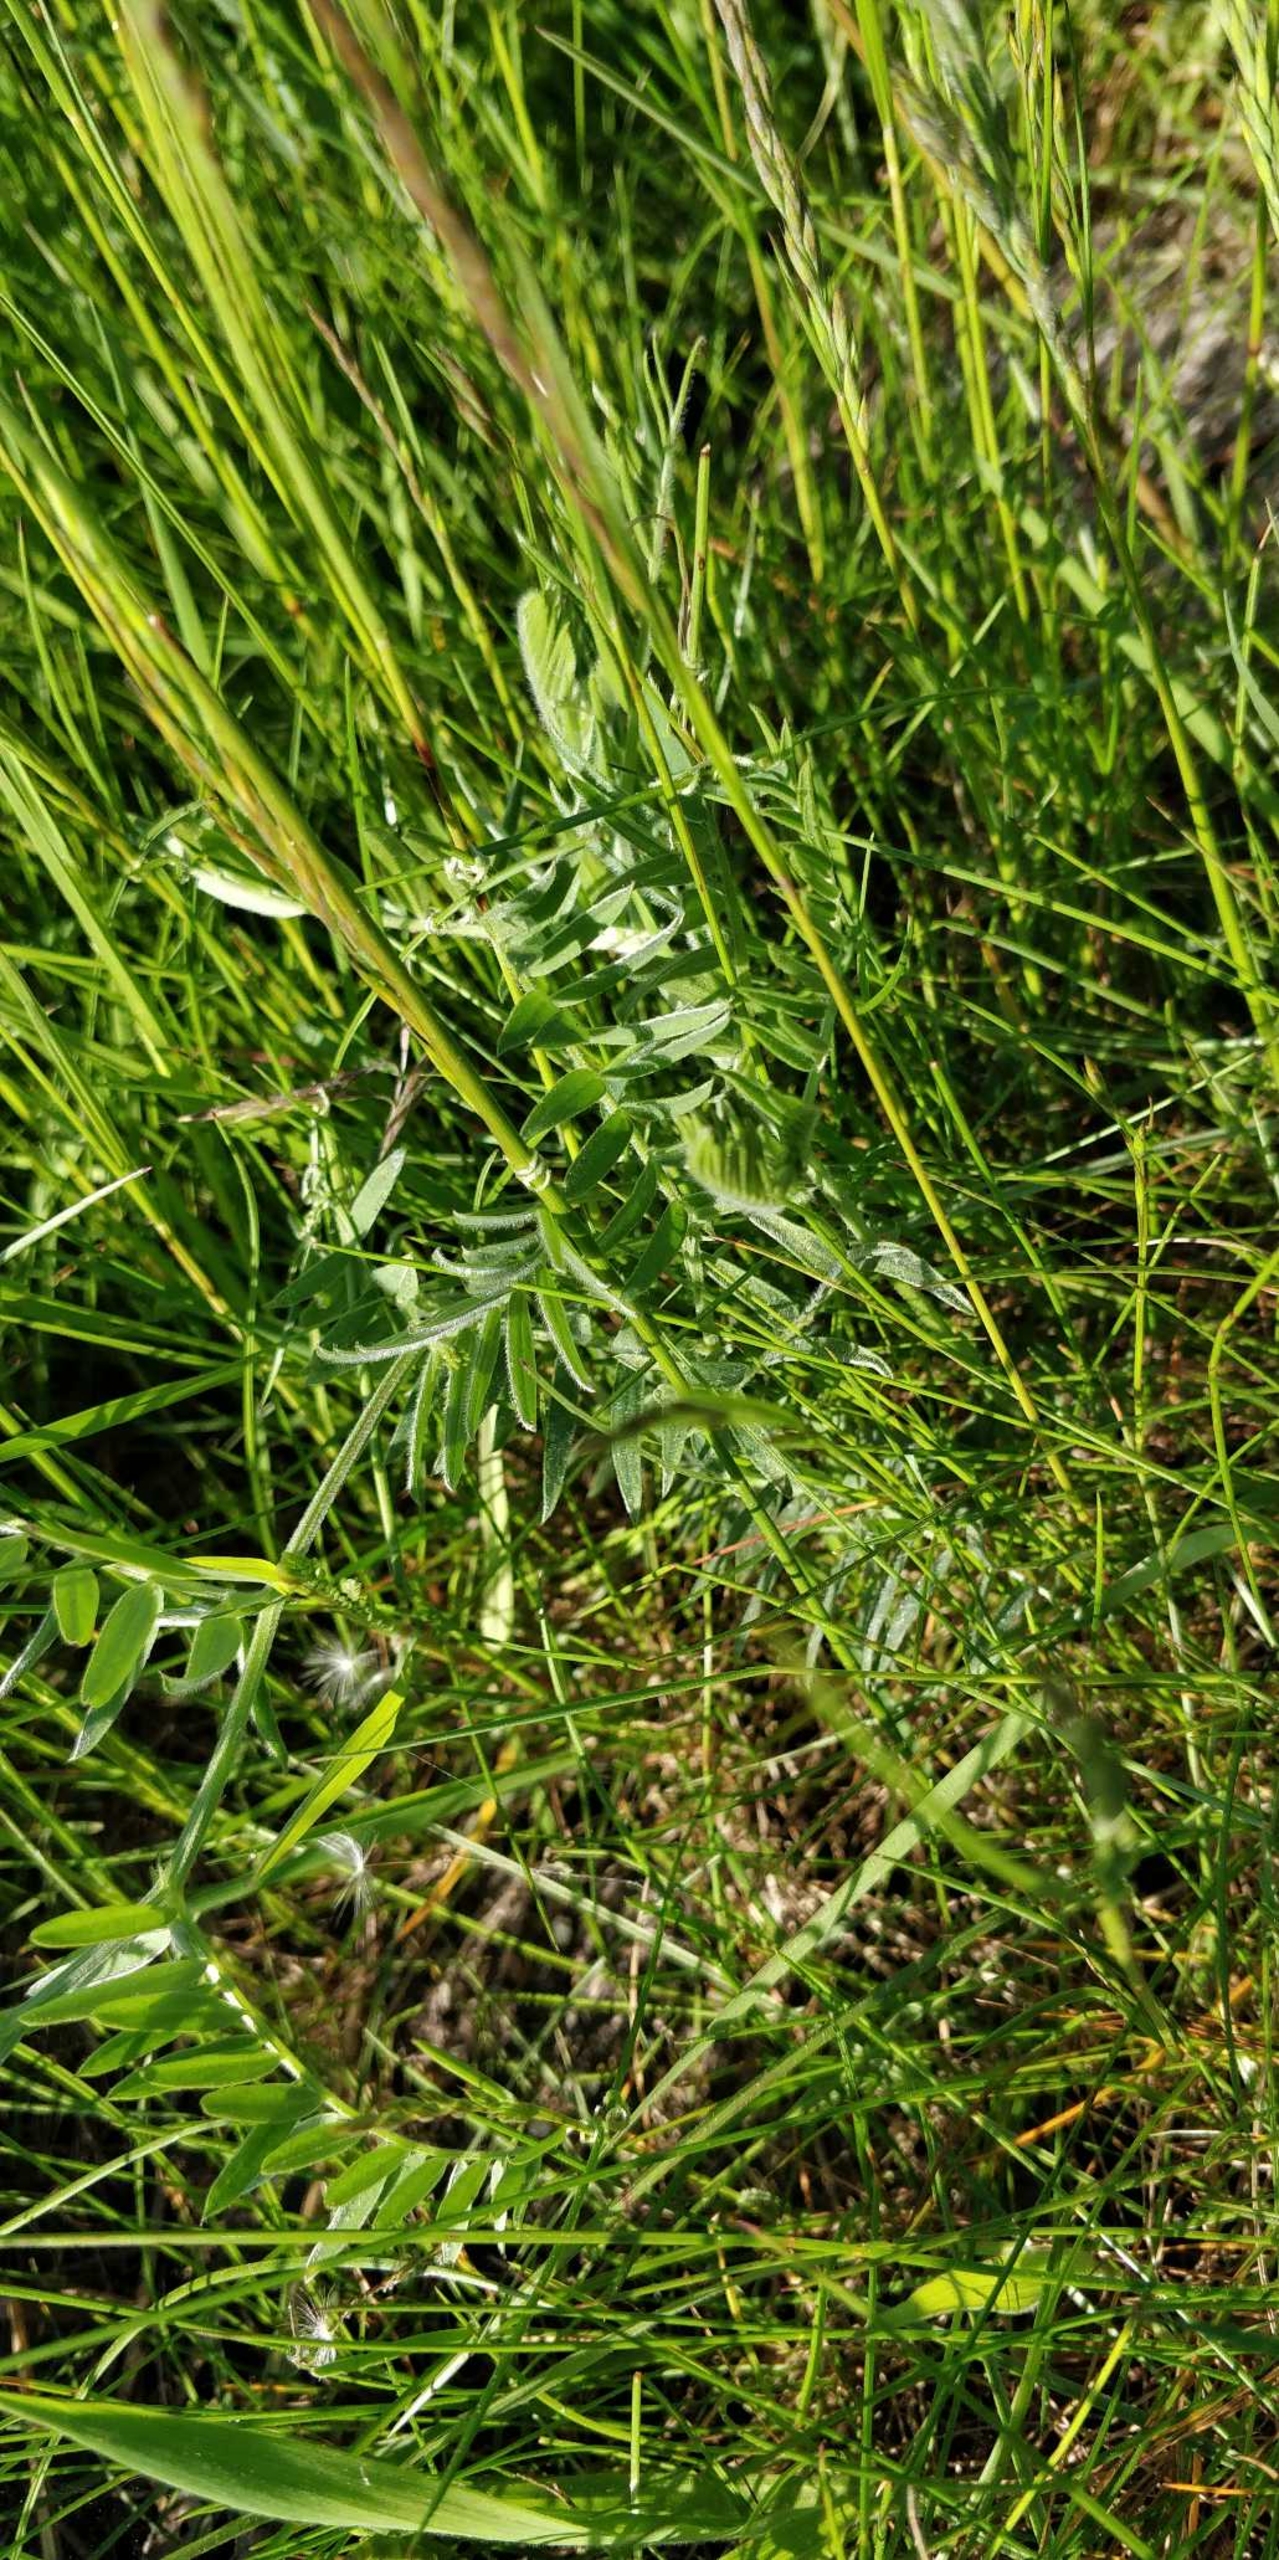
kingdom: Plantae
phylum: Tracheophyta
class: Magnoliopsida
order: Fabales
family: Fabaceae
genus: Vicia
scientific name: Vicia cracca
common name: Muse-vikke
